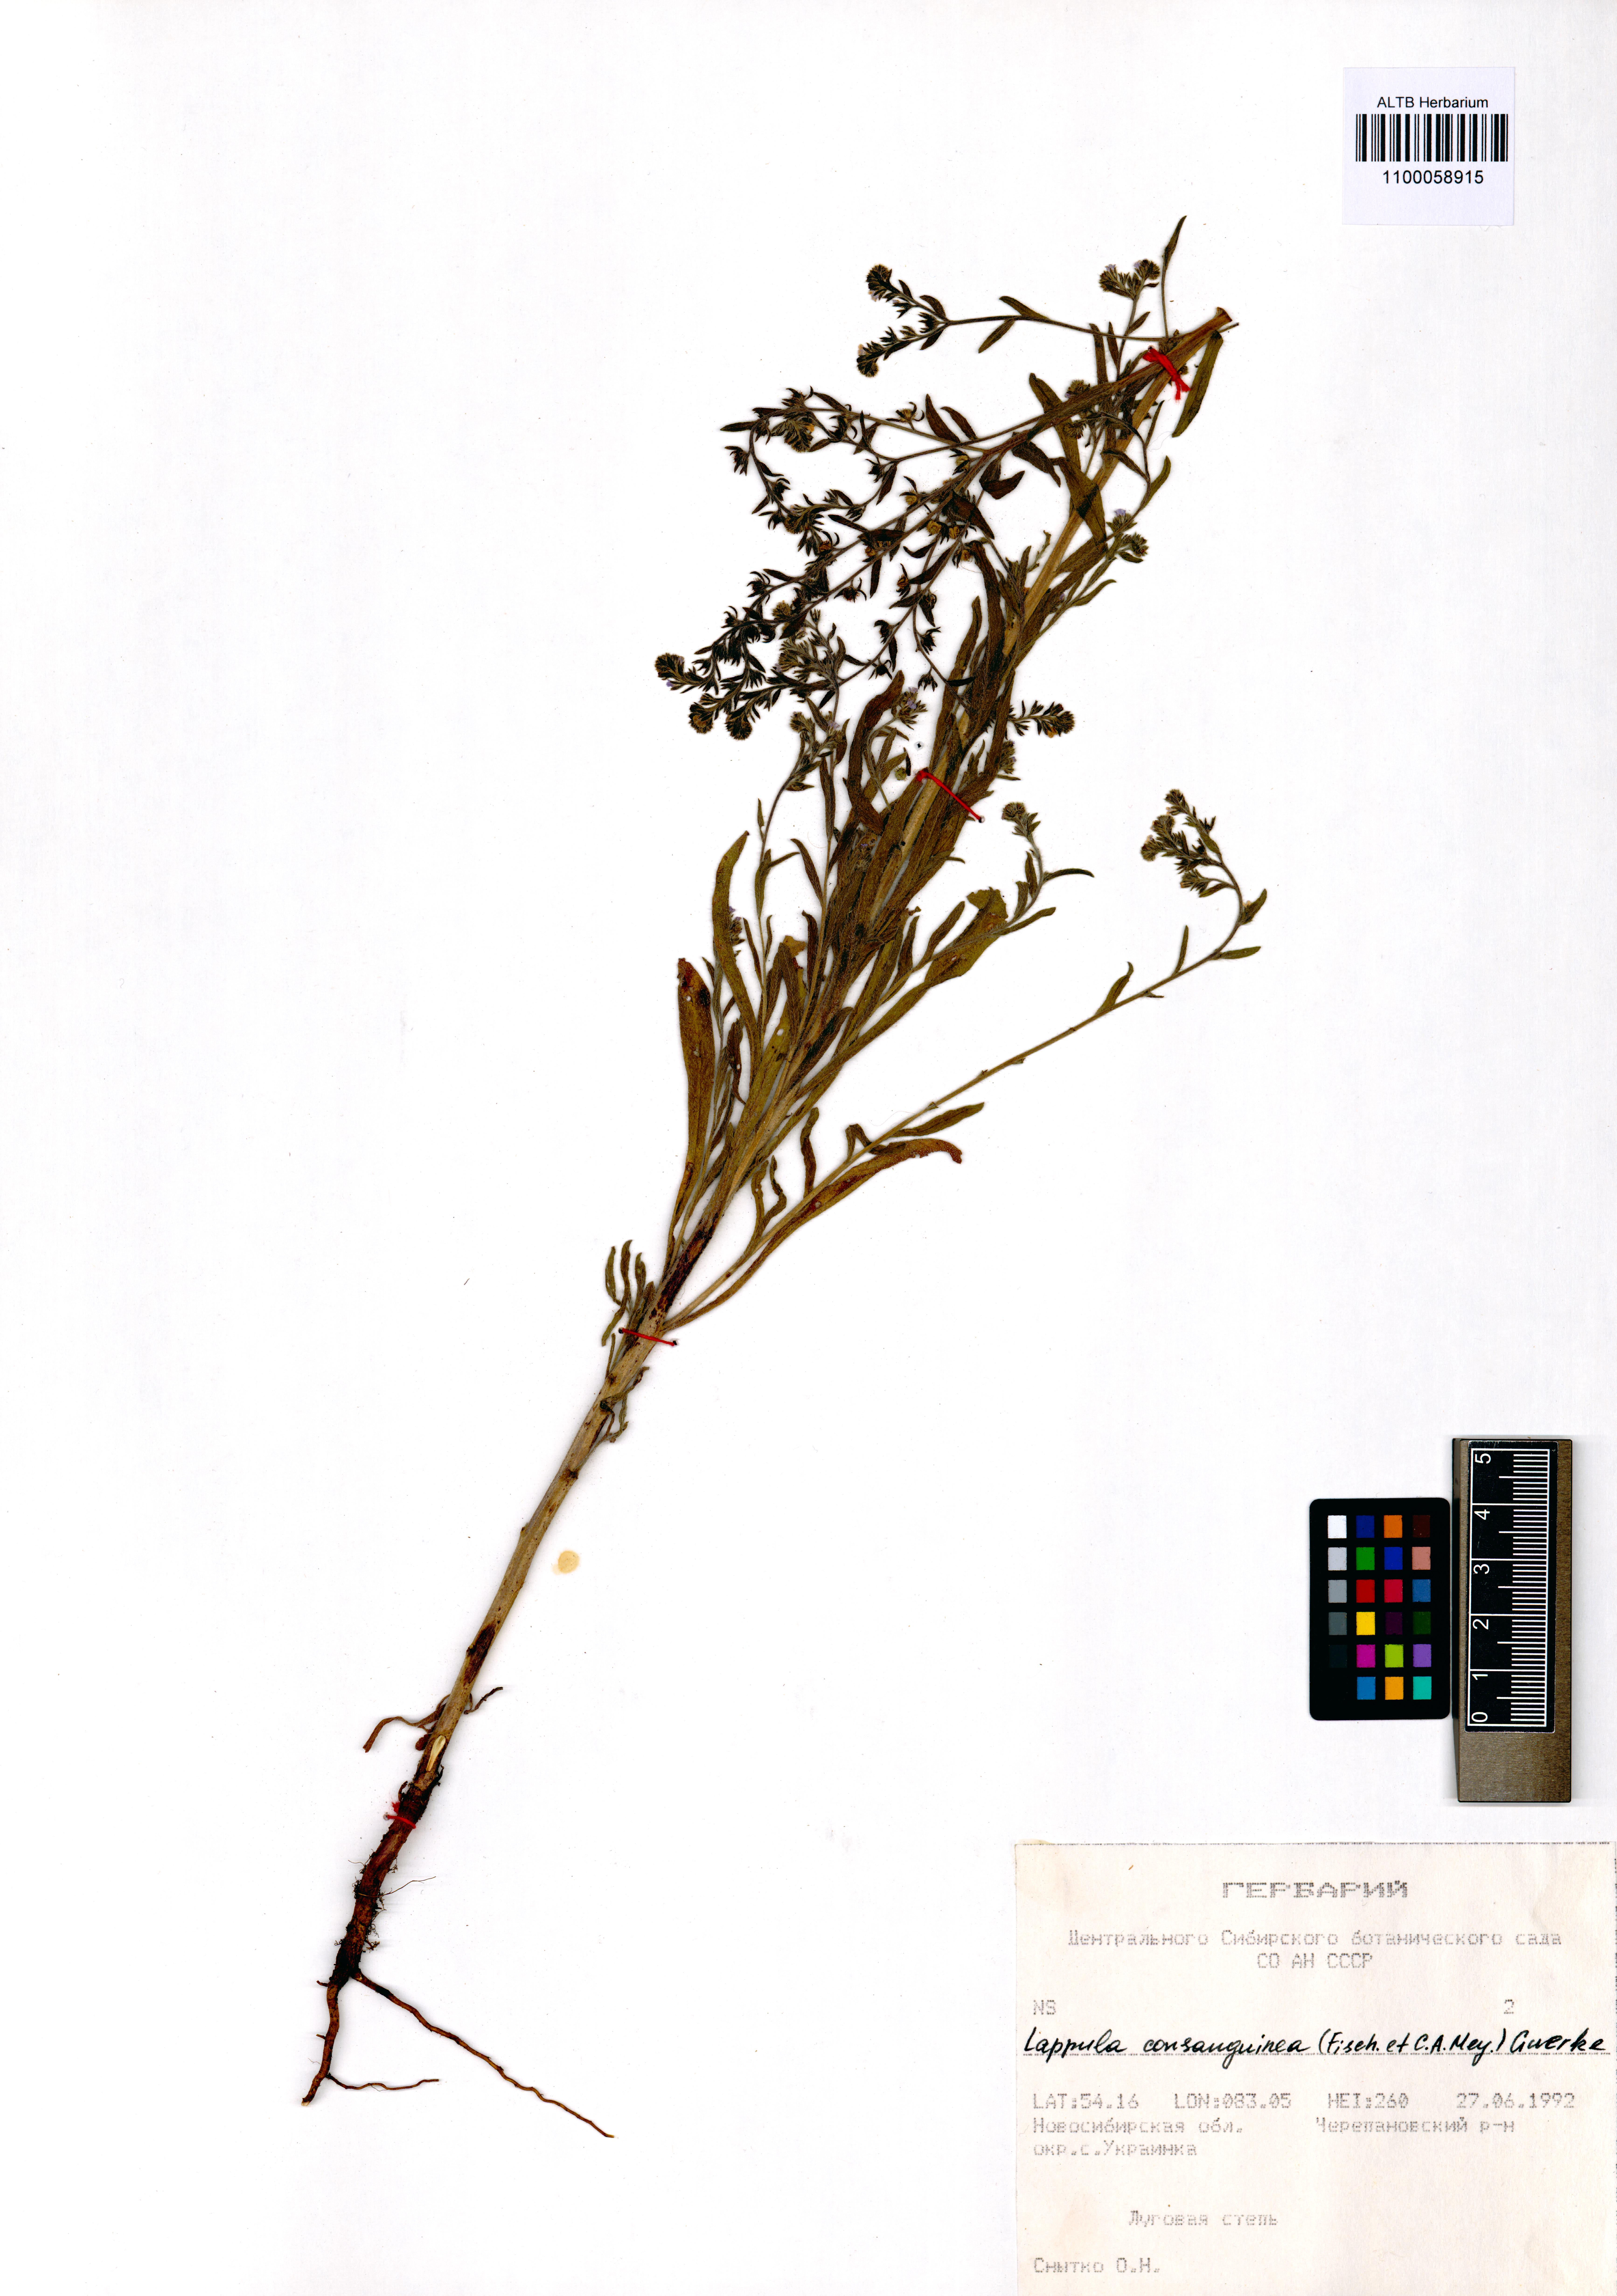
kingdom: Plantae
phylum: Tracheophyta
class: Magnoliopsida
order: Boraginales
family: Boraginaceae
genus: Lappula
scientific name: Lappula squarrosa
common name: European stickseed
